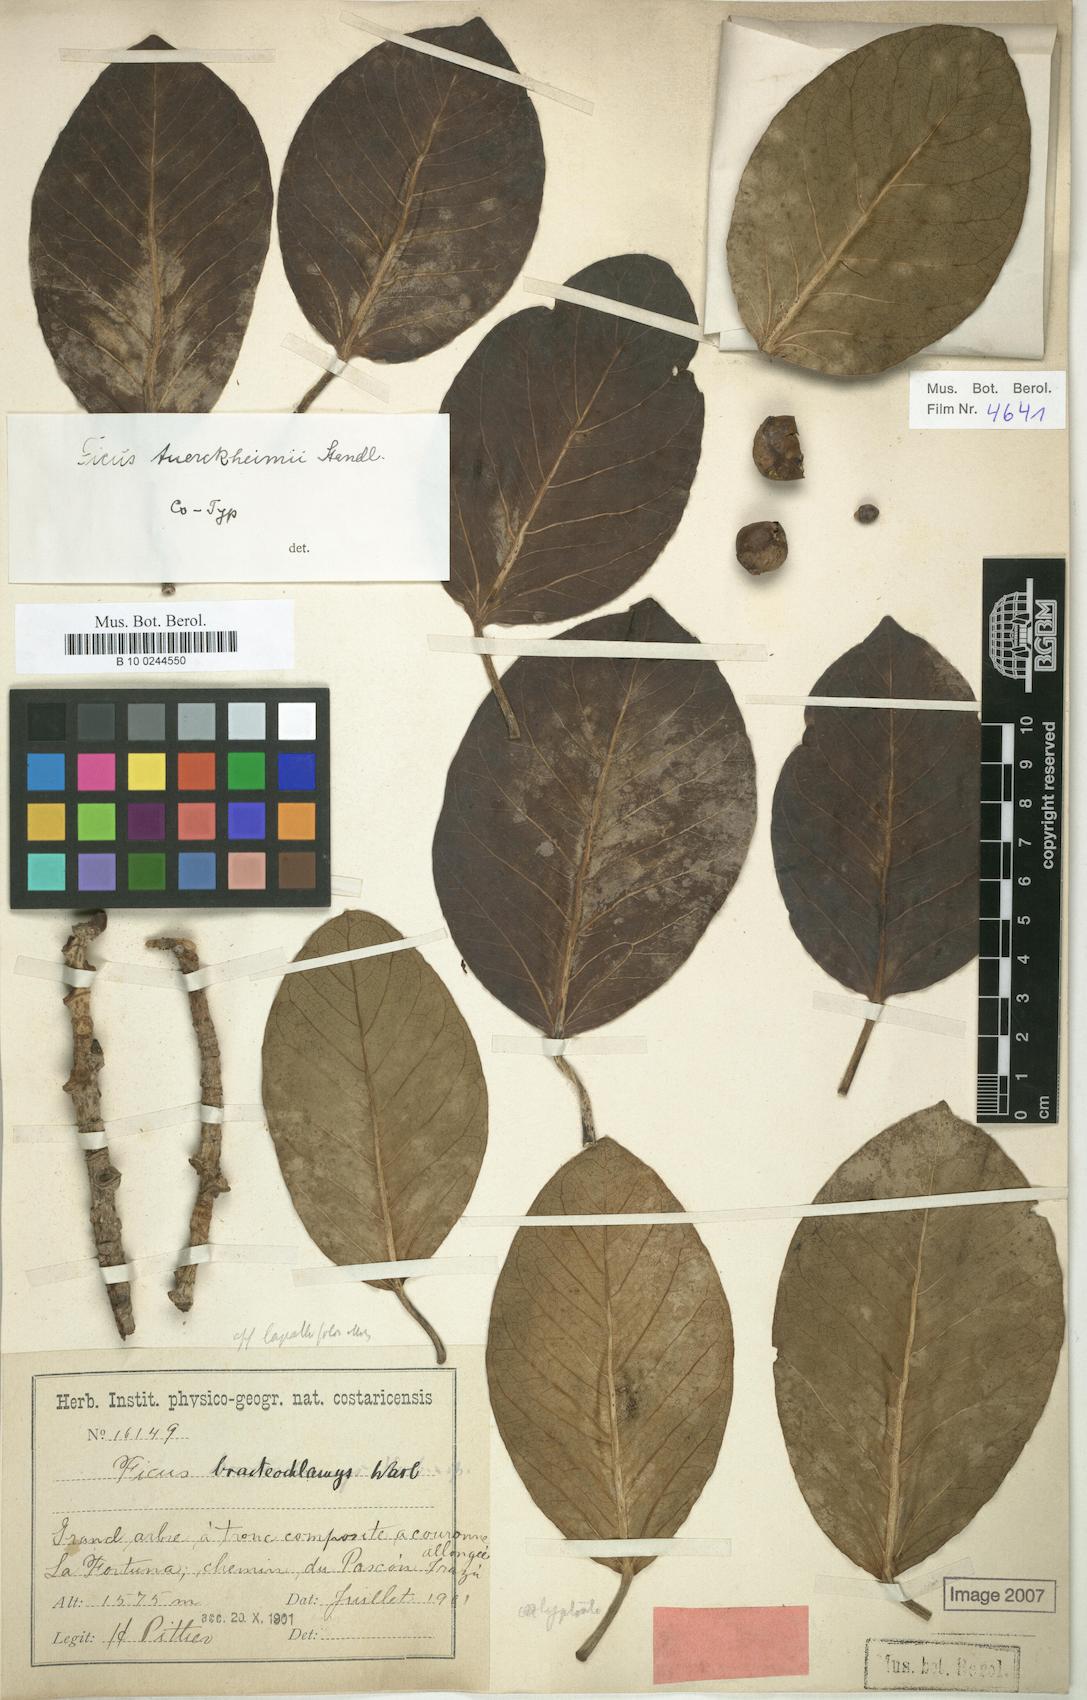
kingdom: Plantae
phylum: Tracheophyta
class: Magnoliopsida
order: Rosales
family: Moraceae
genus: Ficus
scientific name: Ficus aurea
